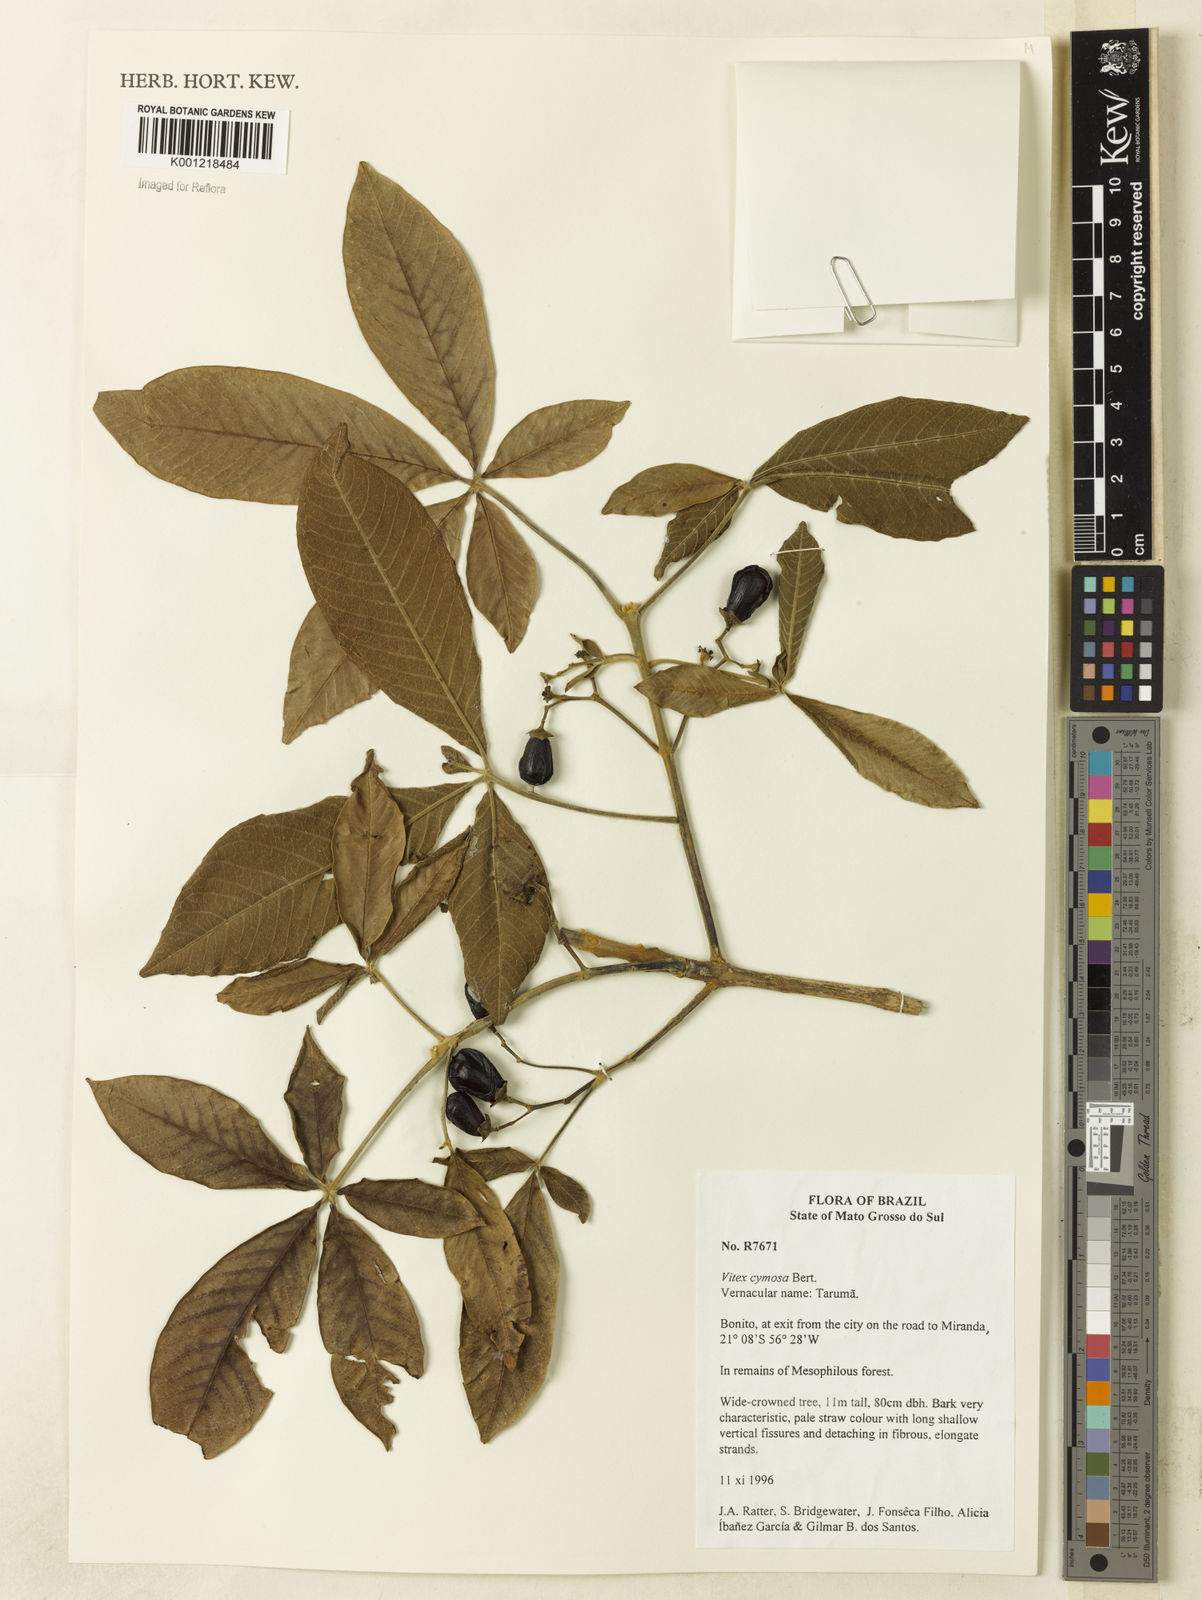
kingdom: Plantae
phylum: Tracheophyta
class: Magnoliopsida
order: Lamiales
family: Lamiaceae
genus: Vitex
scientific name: Vitex cymosa
